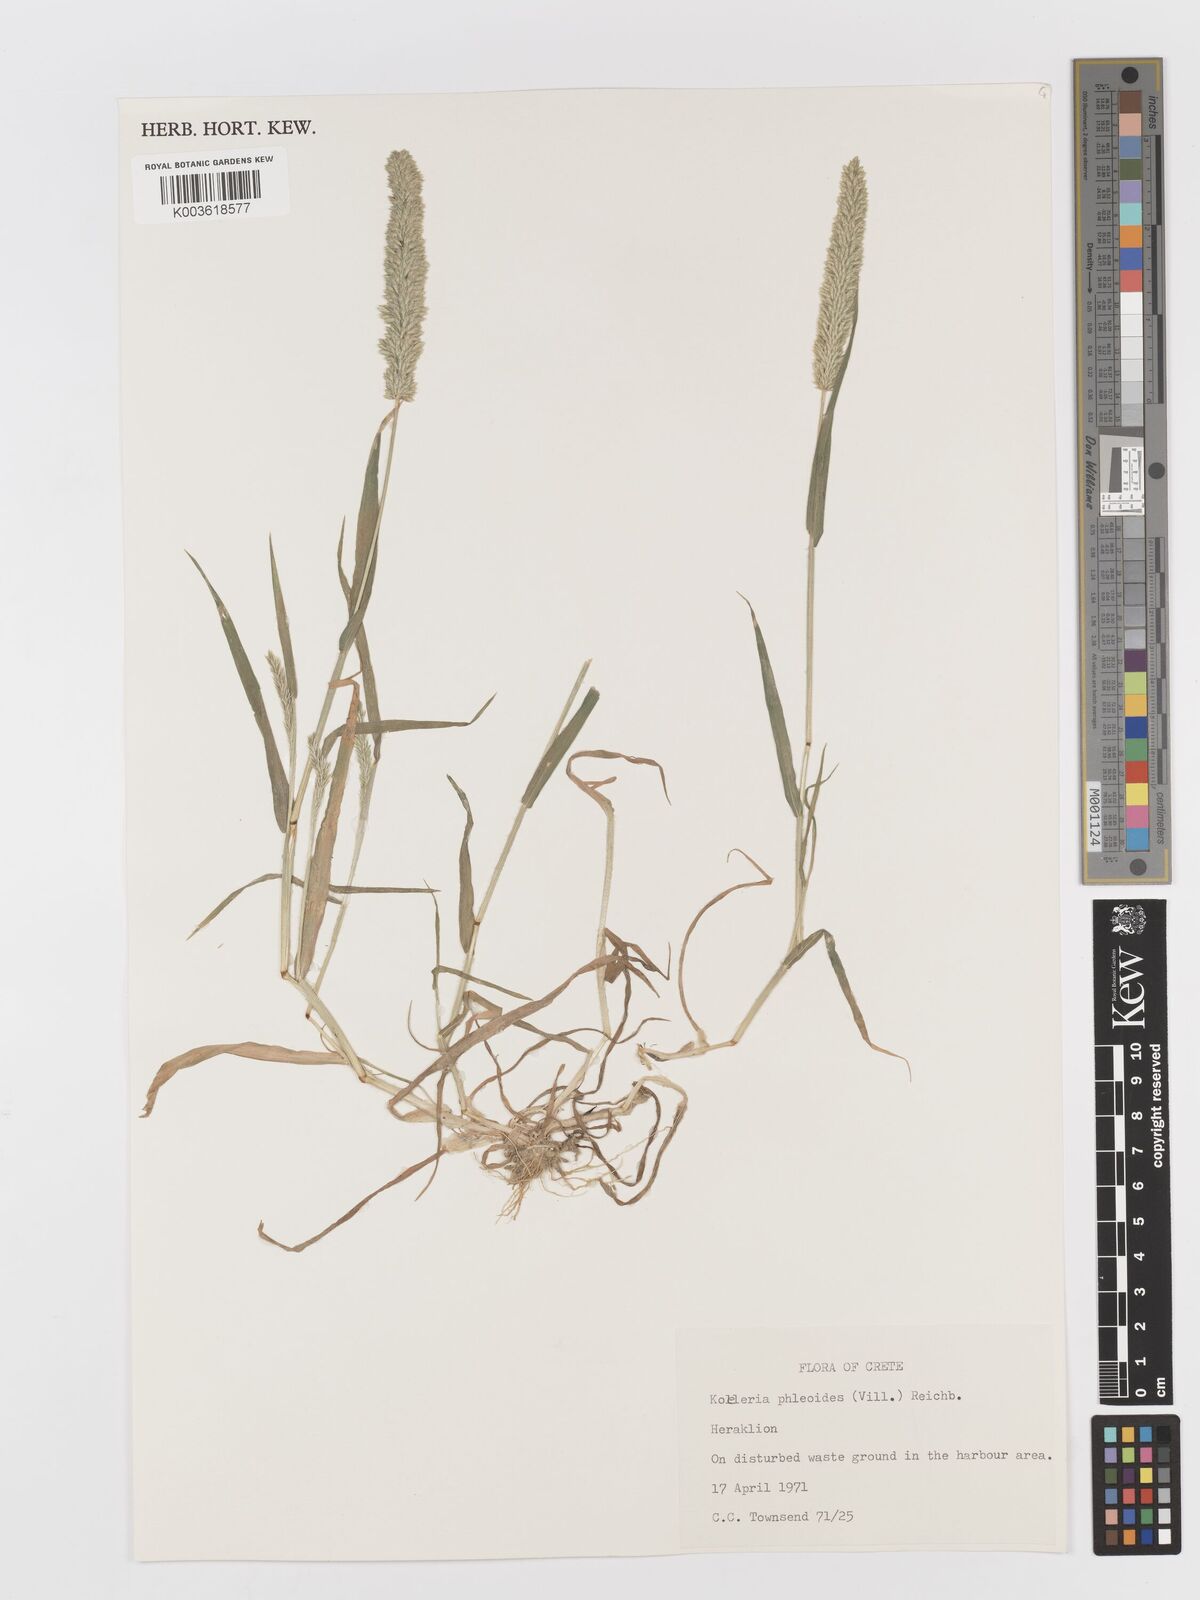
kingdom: Plantae
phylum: Tracheophyta
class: Liliopsida
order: Poales
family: Poaceae
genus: Rostraria
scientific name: Rostraria cristata
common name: Mediterranean hair-grass
